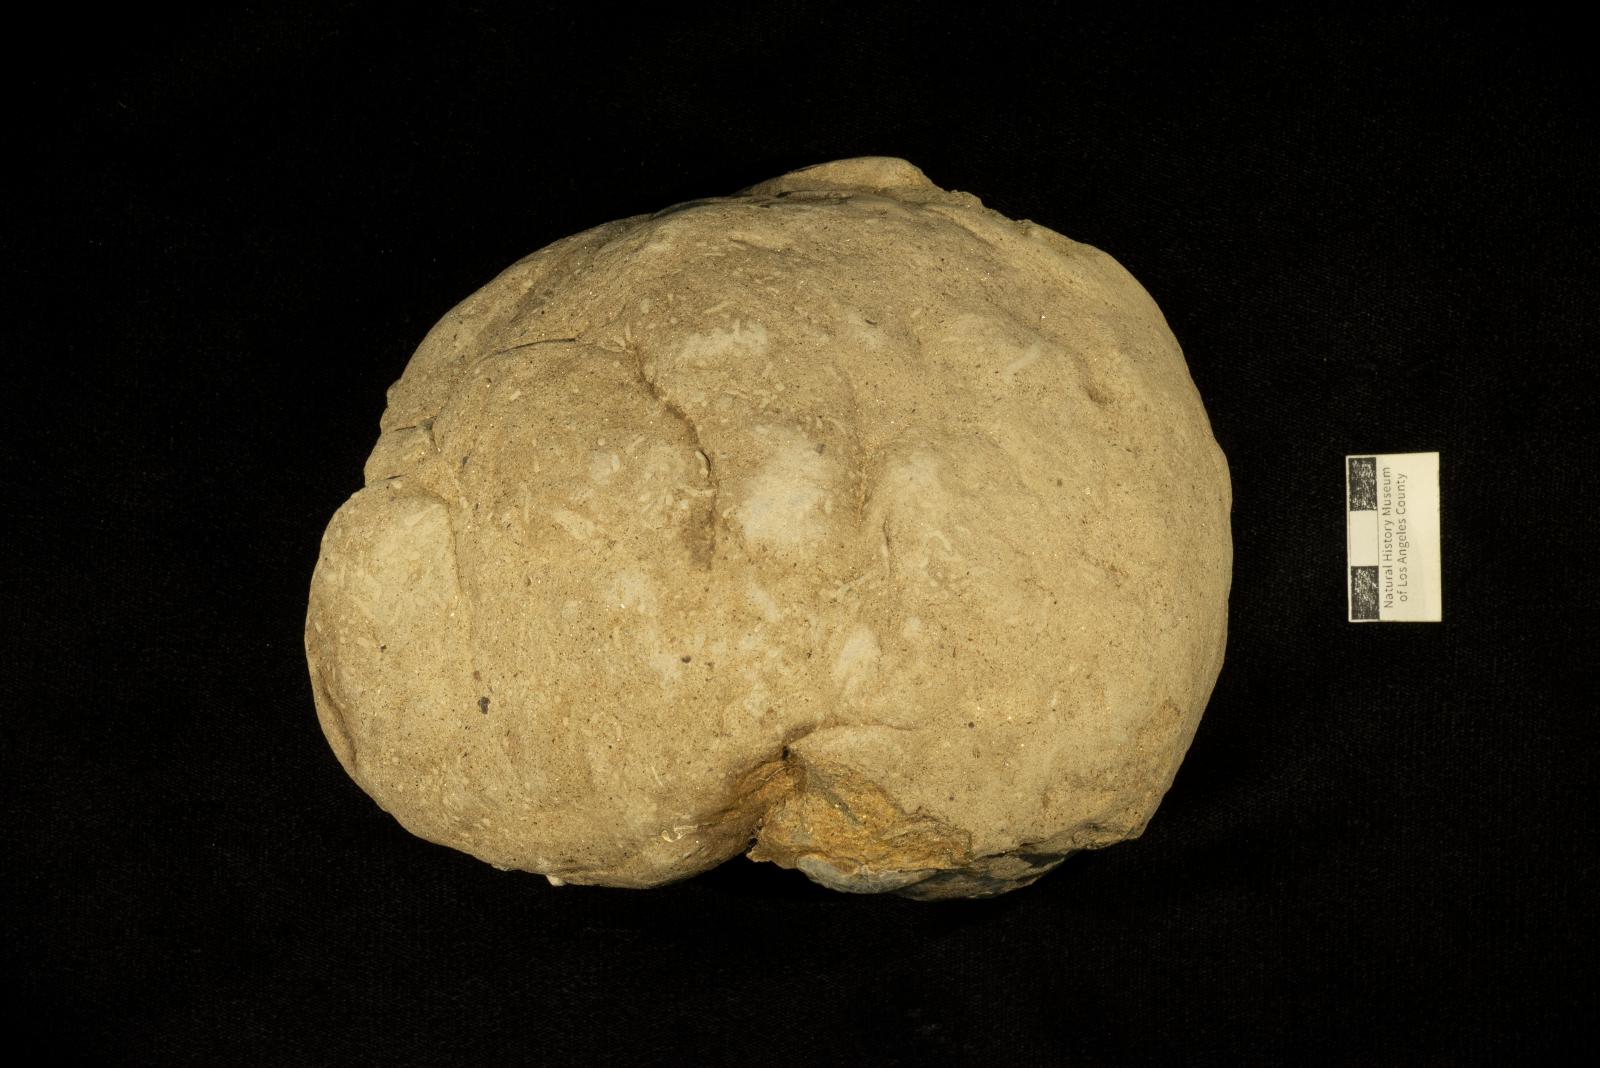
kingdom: Animalia
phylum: Mollusca
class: Cephalopoda
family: Nostoceratidae
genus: Didymoceras
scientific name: Didymoceras hornbyense
